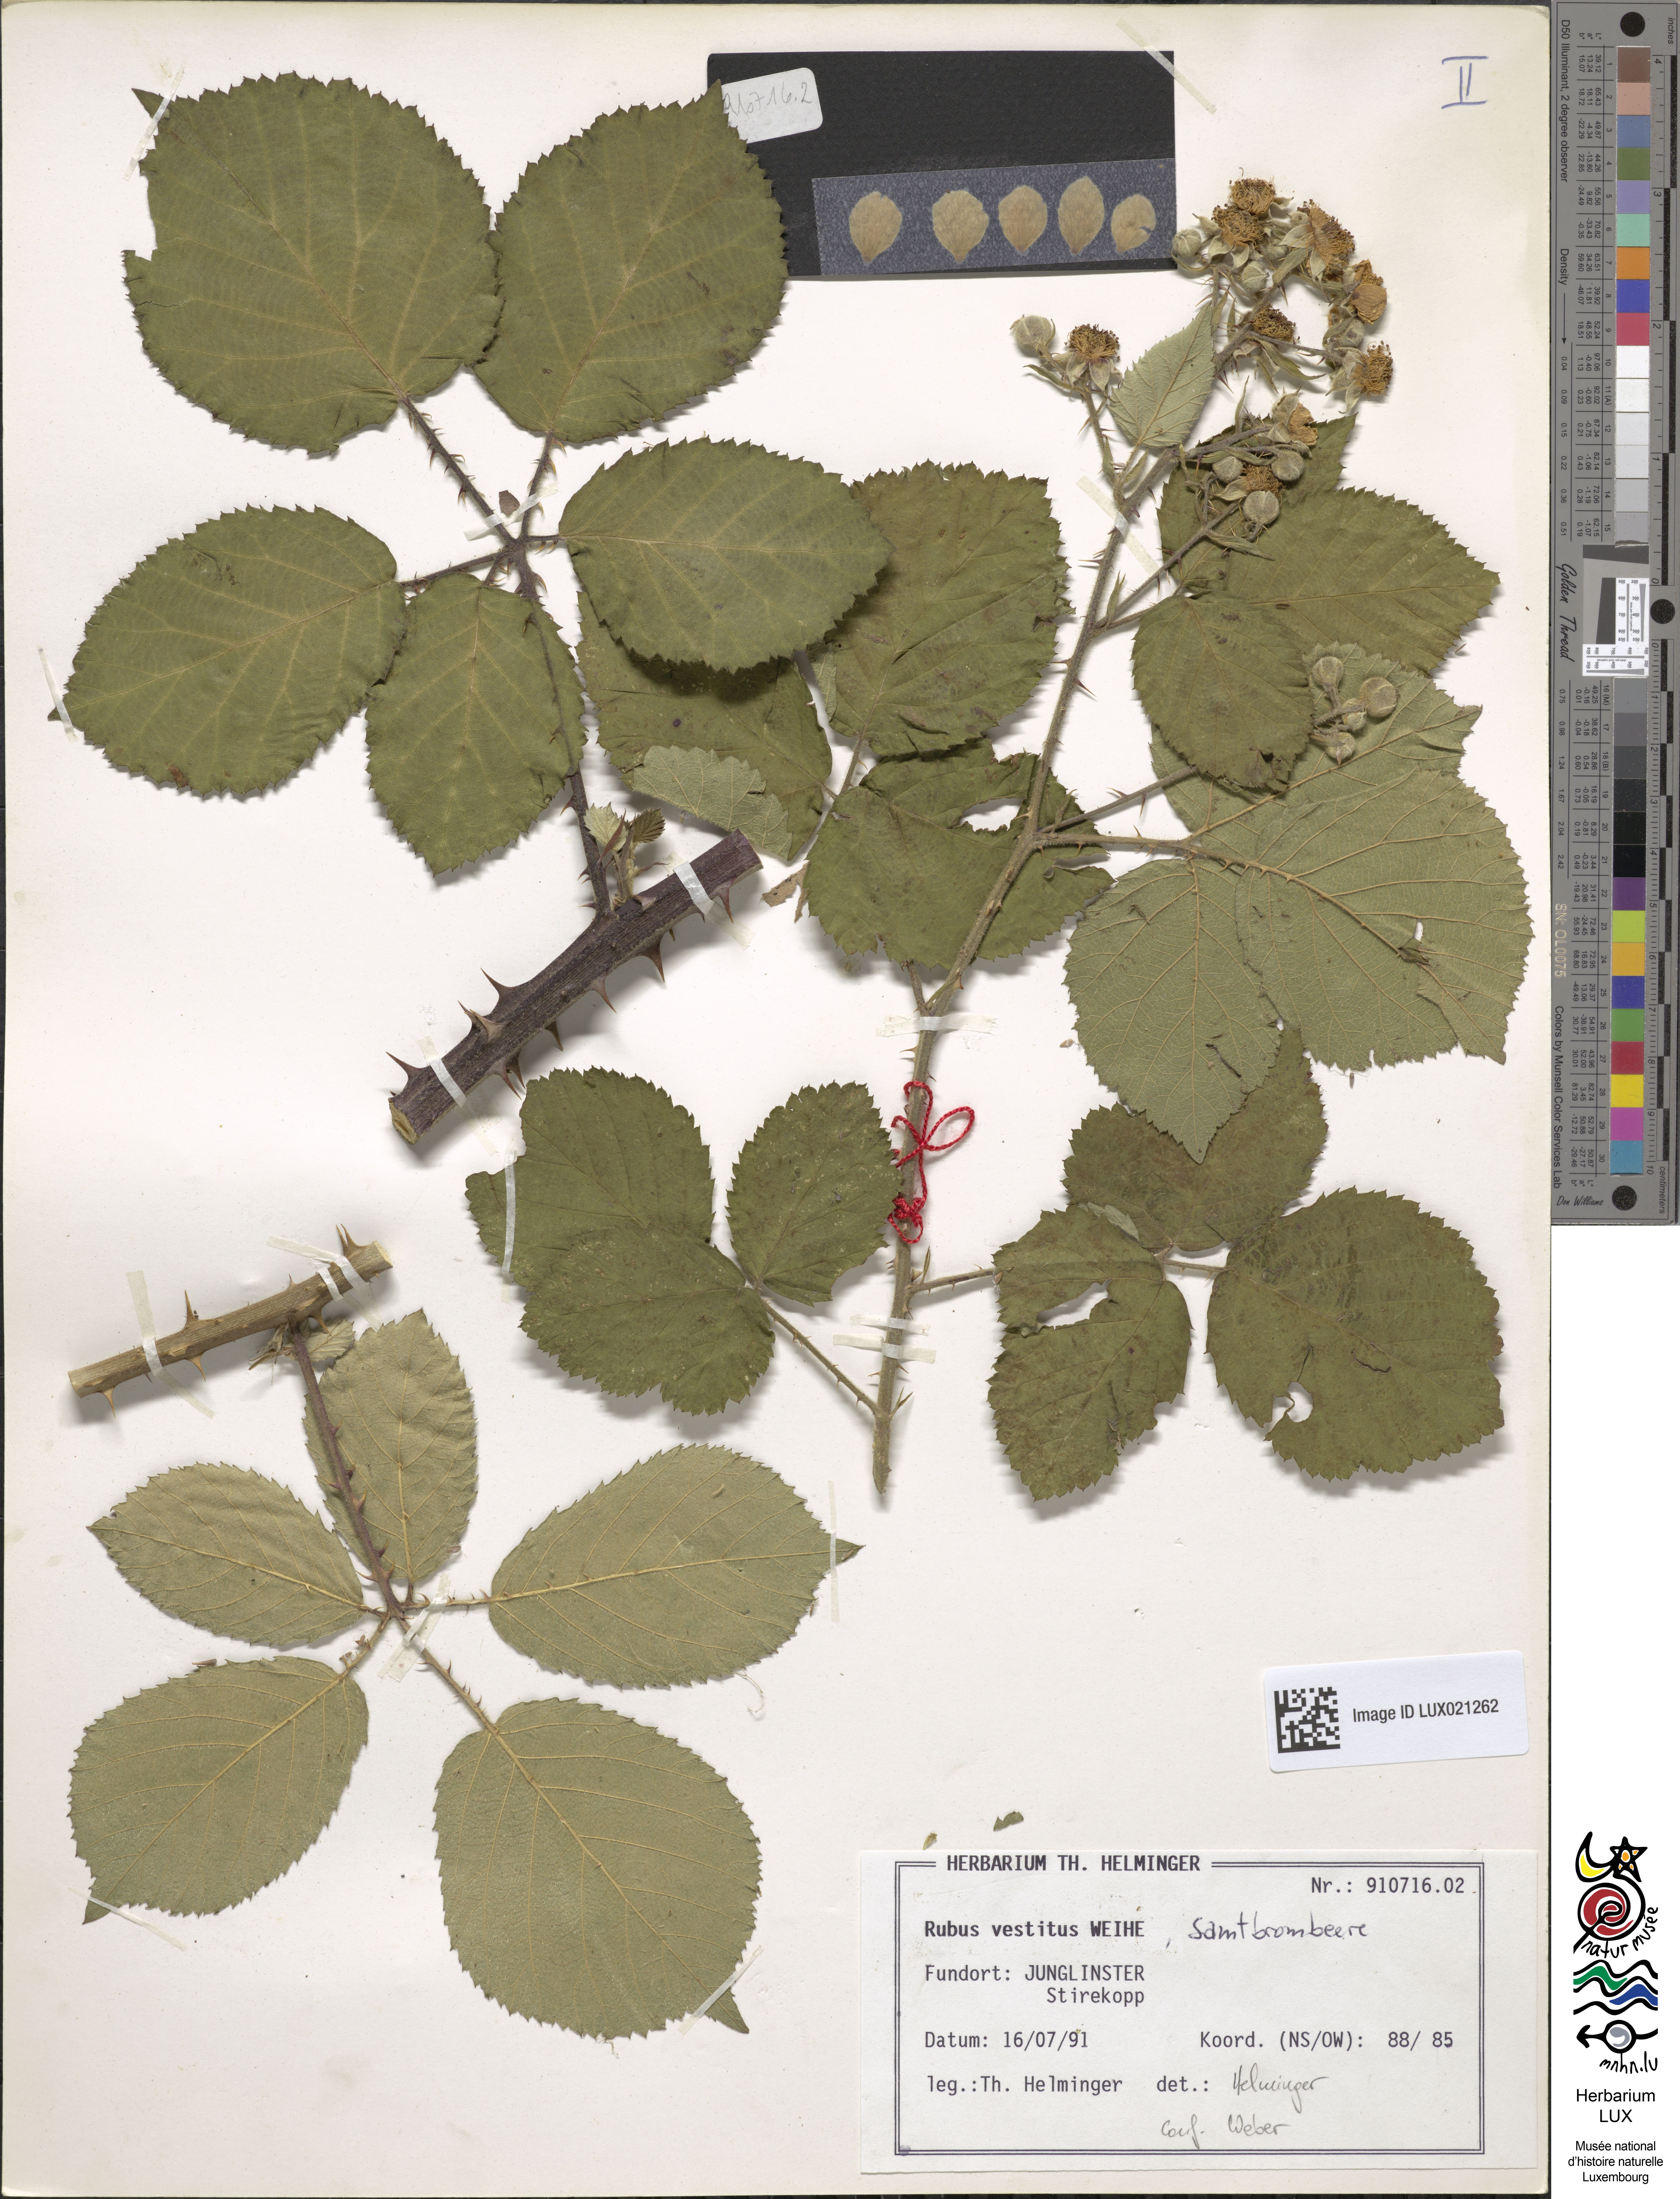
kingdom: Plantae
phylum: Tracheophyta
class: Magnoliopsida
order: Rosales
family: Rosaceae
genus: Rubus
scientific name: Rubus vestitus
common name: European blackberry
